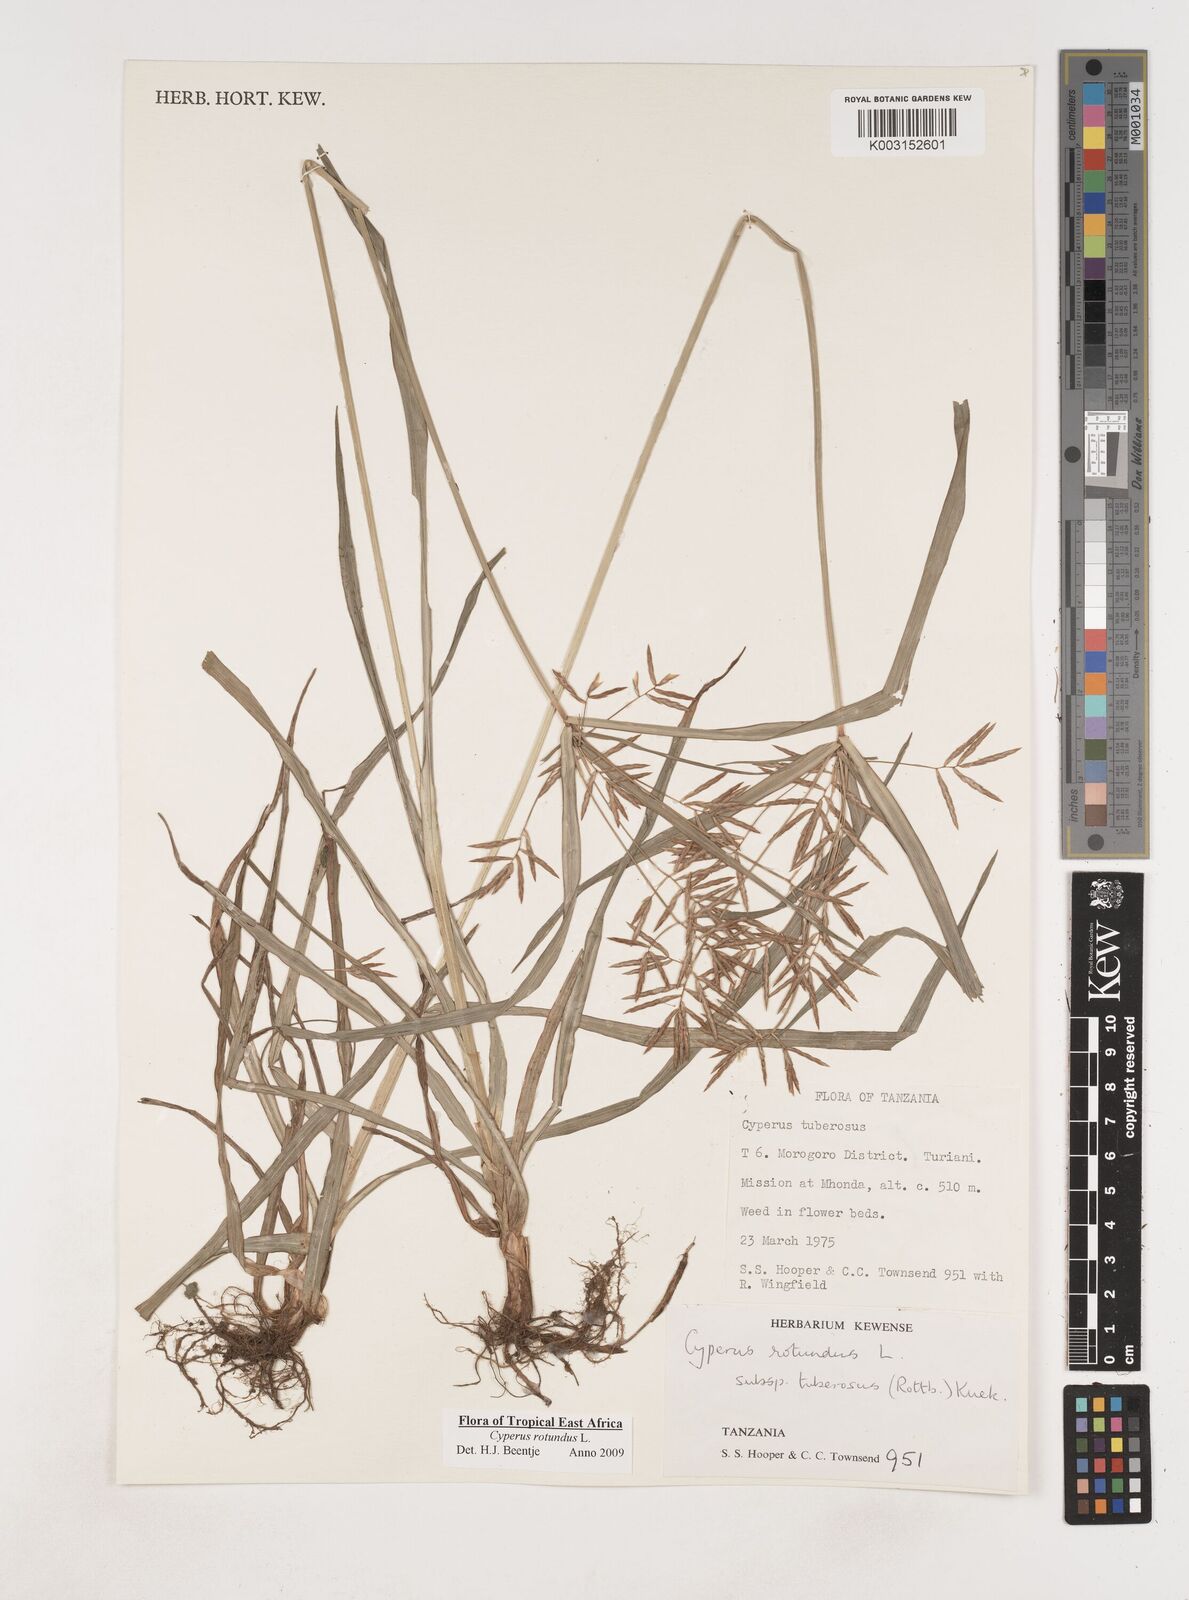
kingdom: Plantae
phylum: Tracheophyta
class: Liliopsida
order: Poales
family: Cyperaceae
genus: Cyperus
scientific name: Cyperus tuberosus
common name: Nut grass
